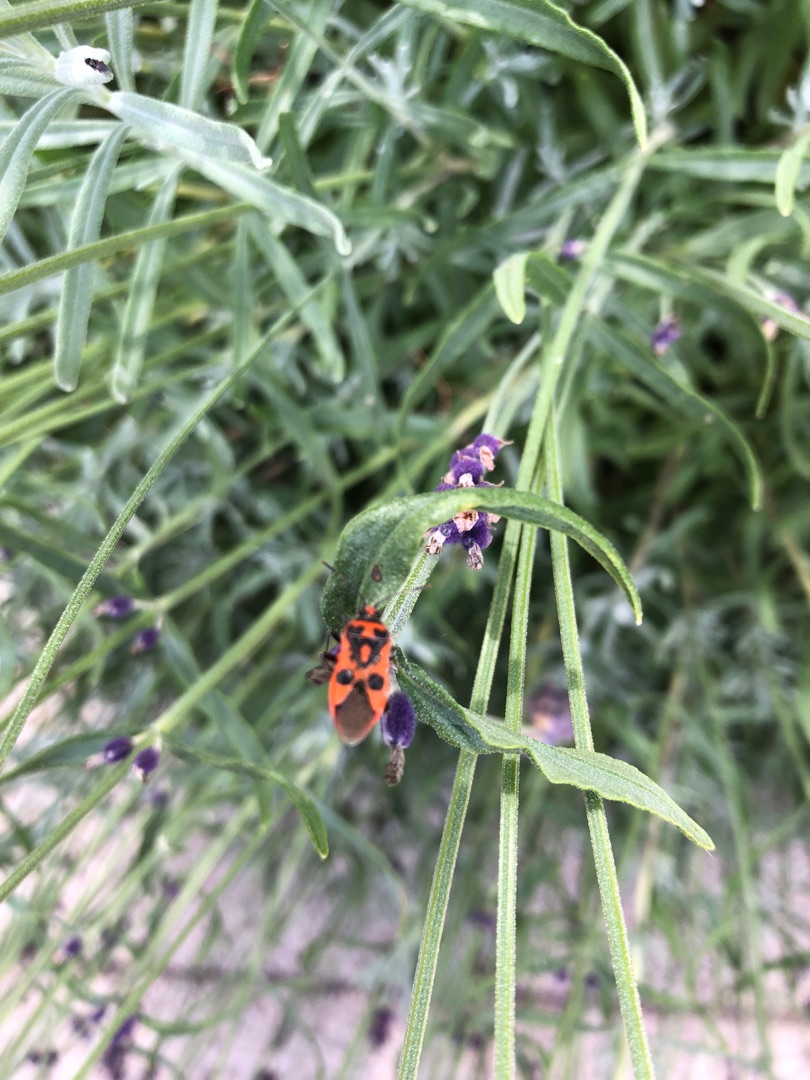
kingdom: Animalia
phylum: Arthropoda
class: Insecta
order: Hemiptera
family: Rhopalidae
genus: Corizus
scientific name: Corizus hyoscyami
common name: Rød kanttæge
